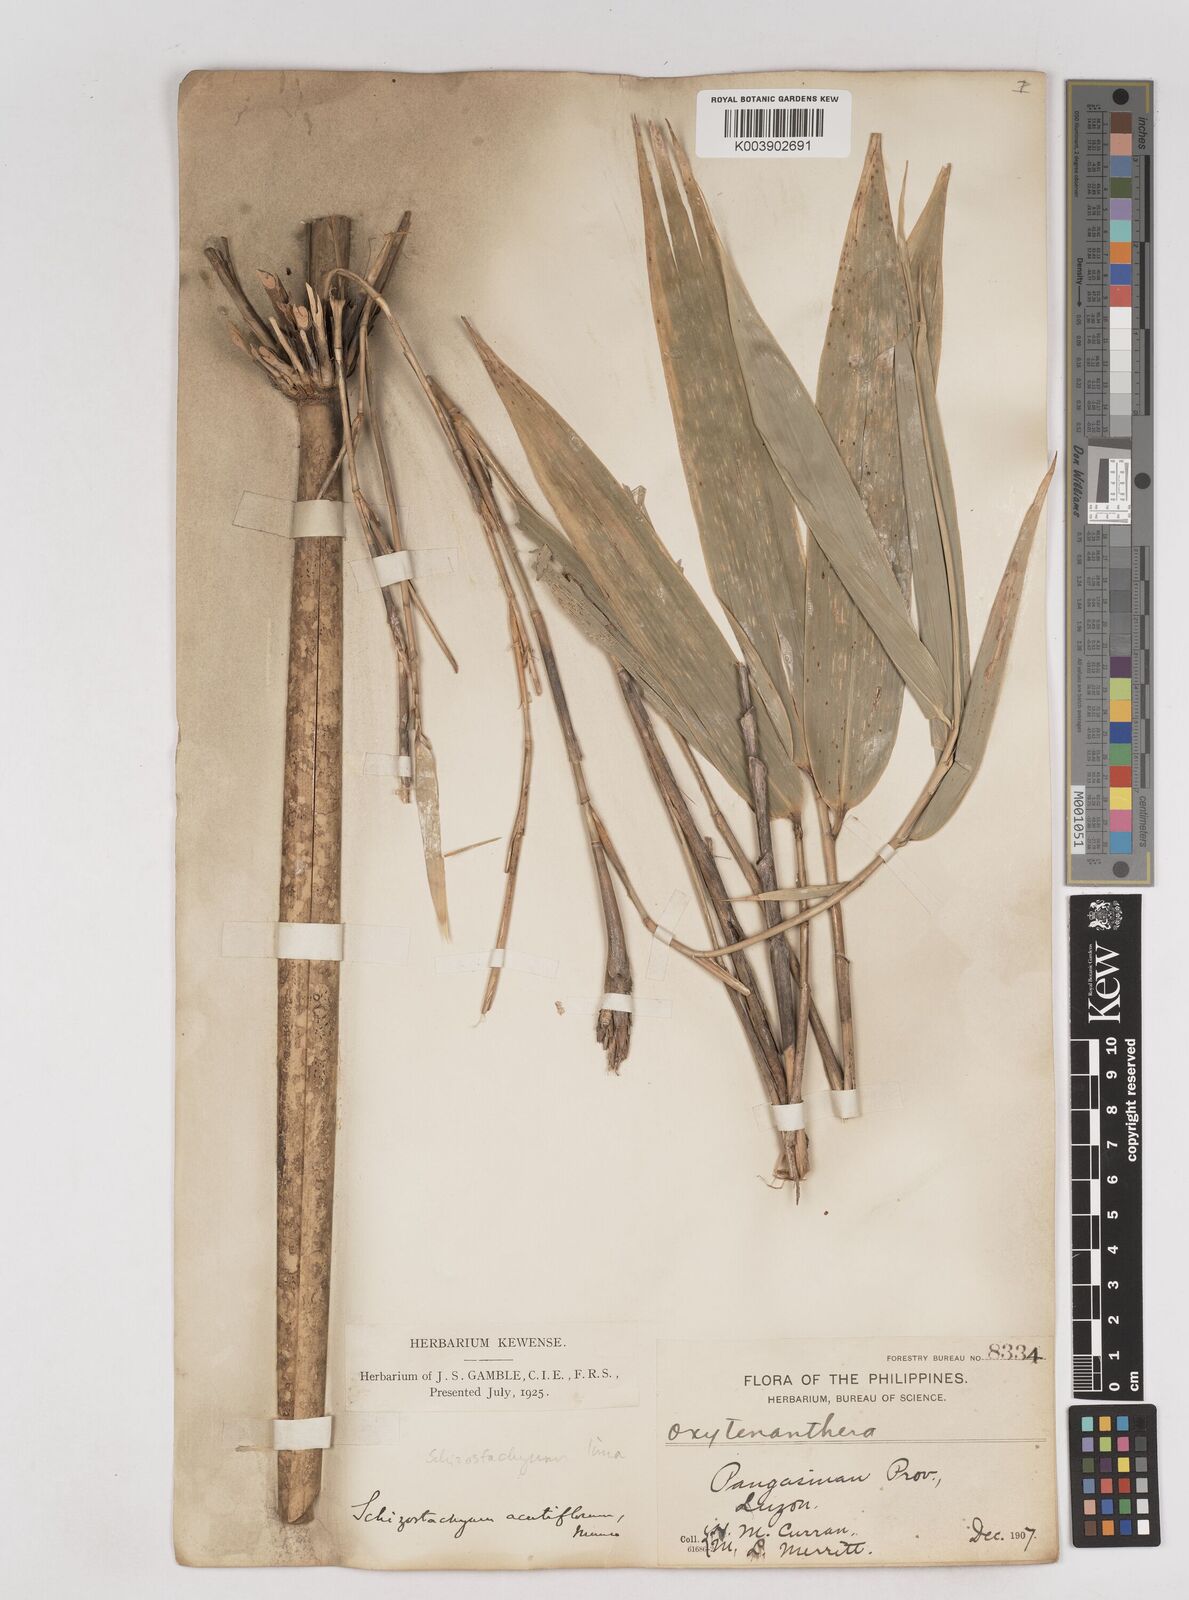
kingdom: Plantae
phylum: Tracheophyta
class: Liliopsida
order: Poales
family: Poaceae
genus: Schizostachyum
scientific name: Schizostachyum
